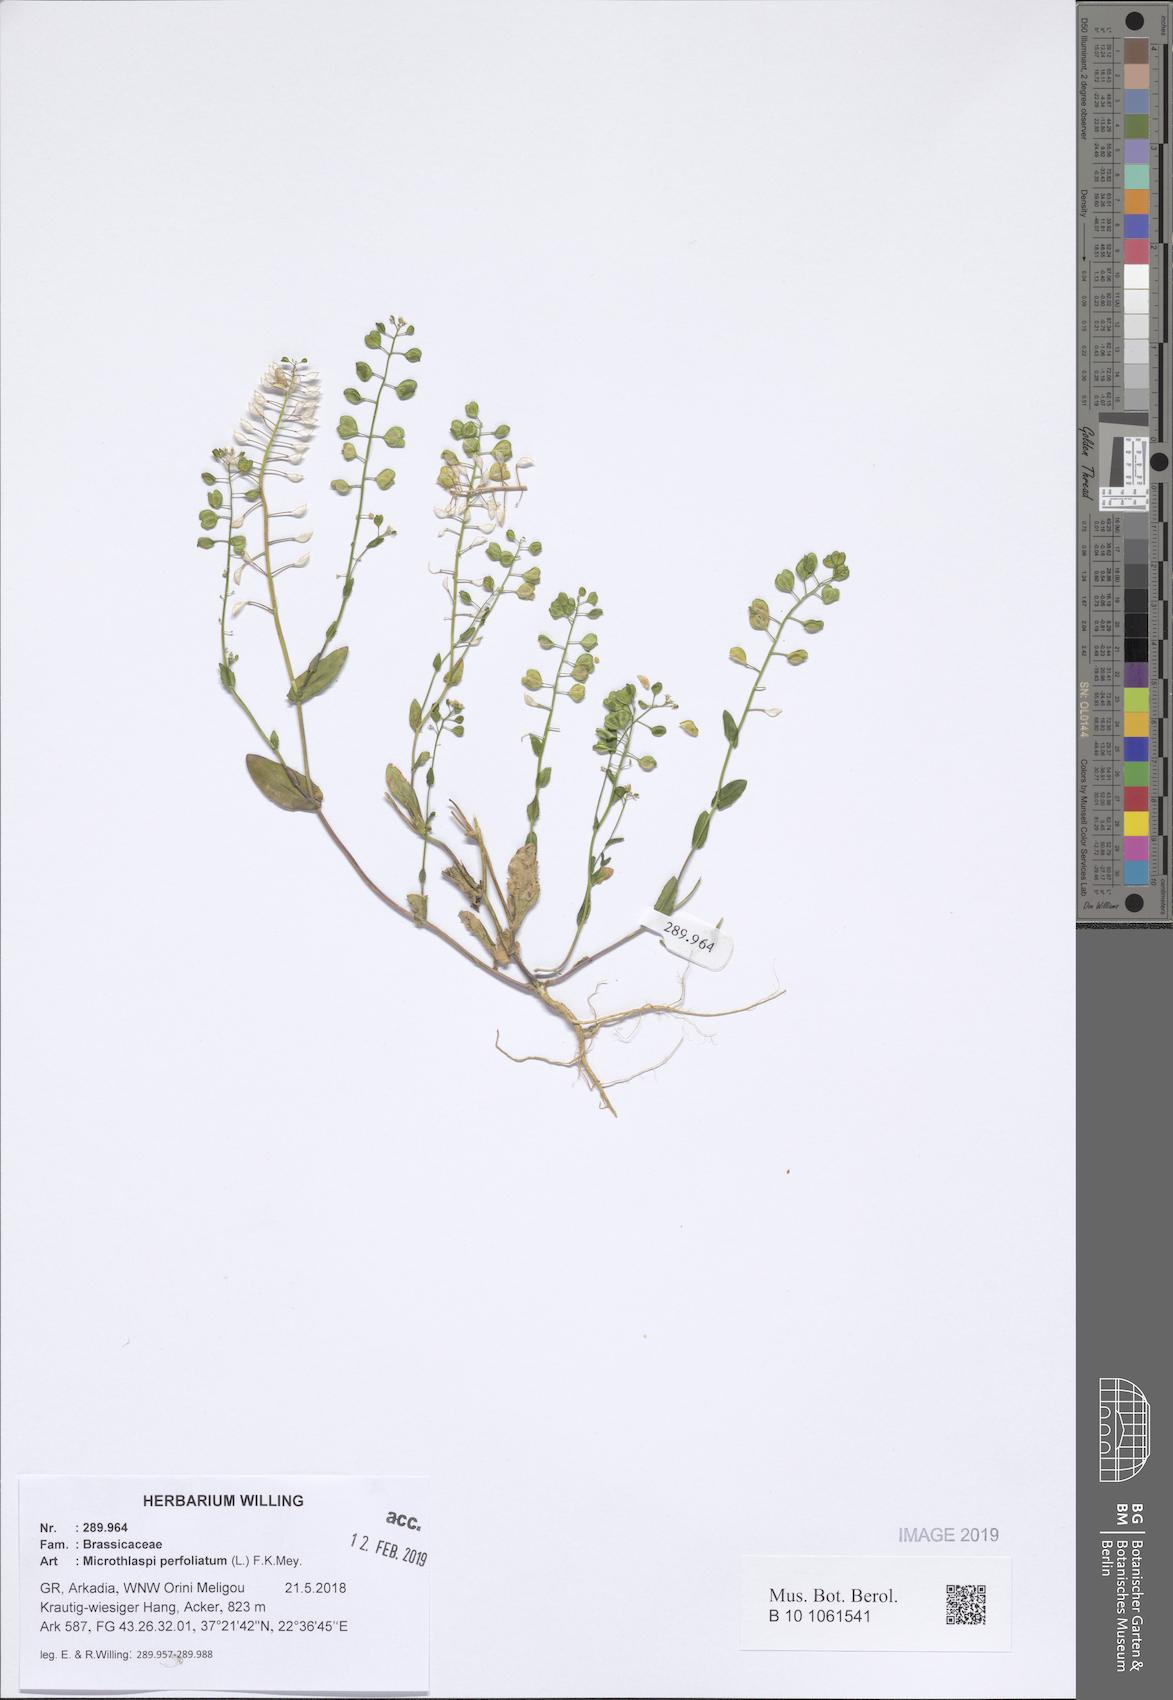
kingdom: Plantae
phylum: Tracheophyta
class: Magnoliopsida
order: Brassicales
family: Brassicaceae
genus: Noccaea
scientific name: Noccaea perfoliata
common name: Perfoliate pennycress
